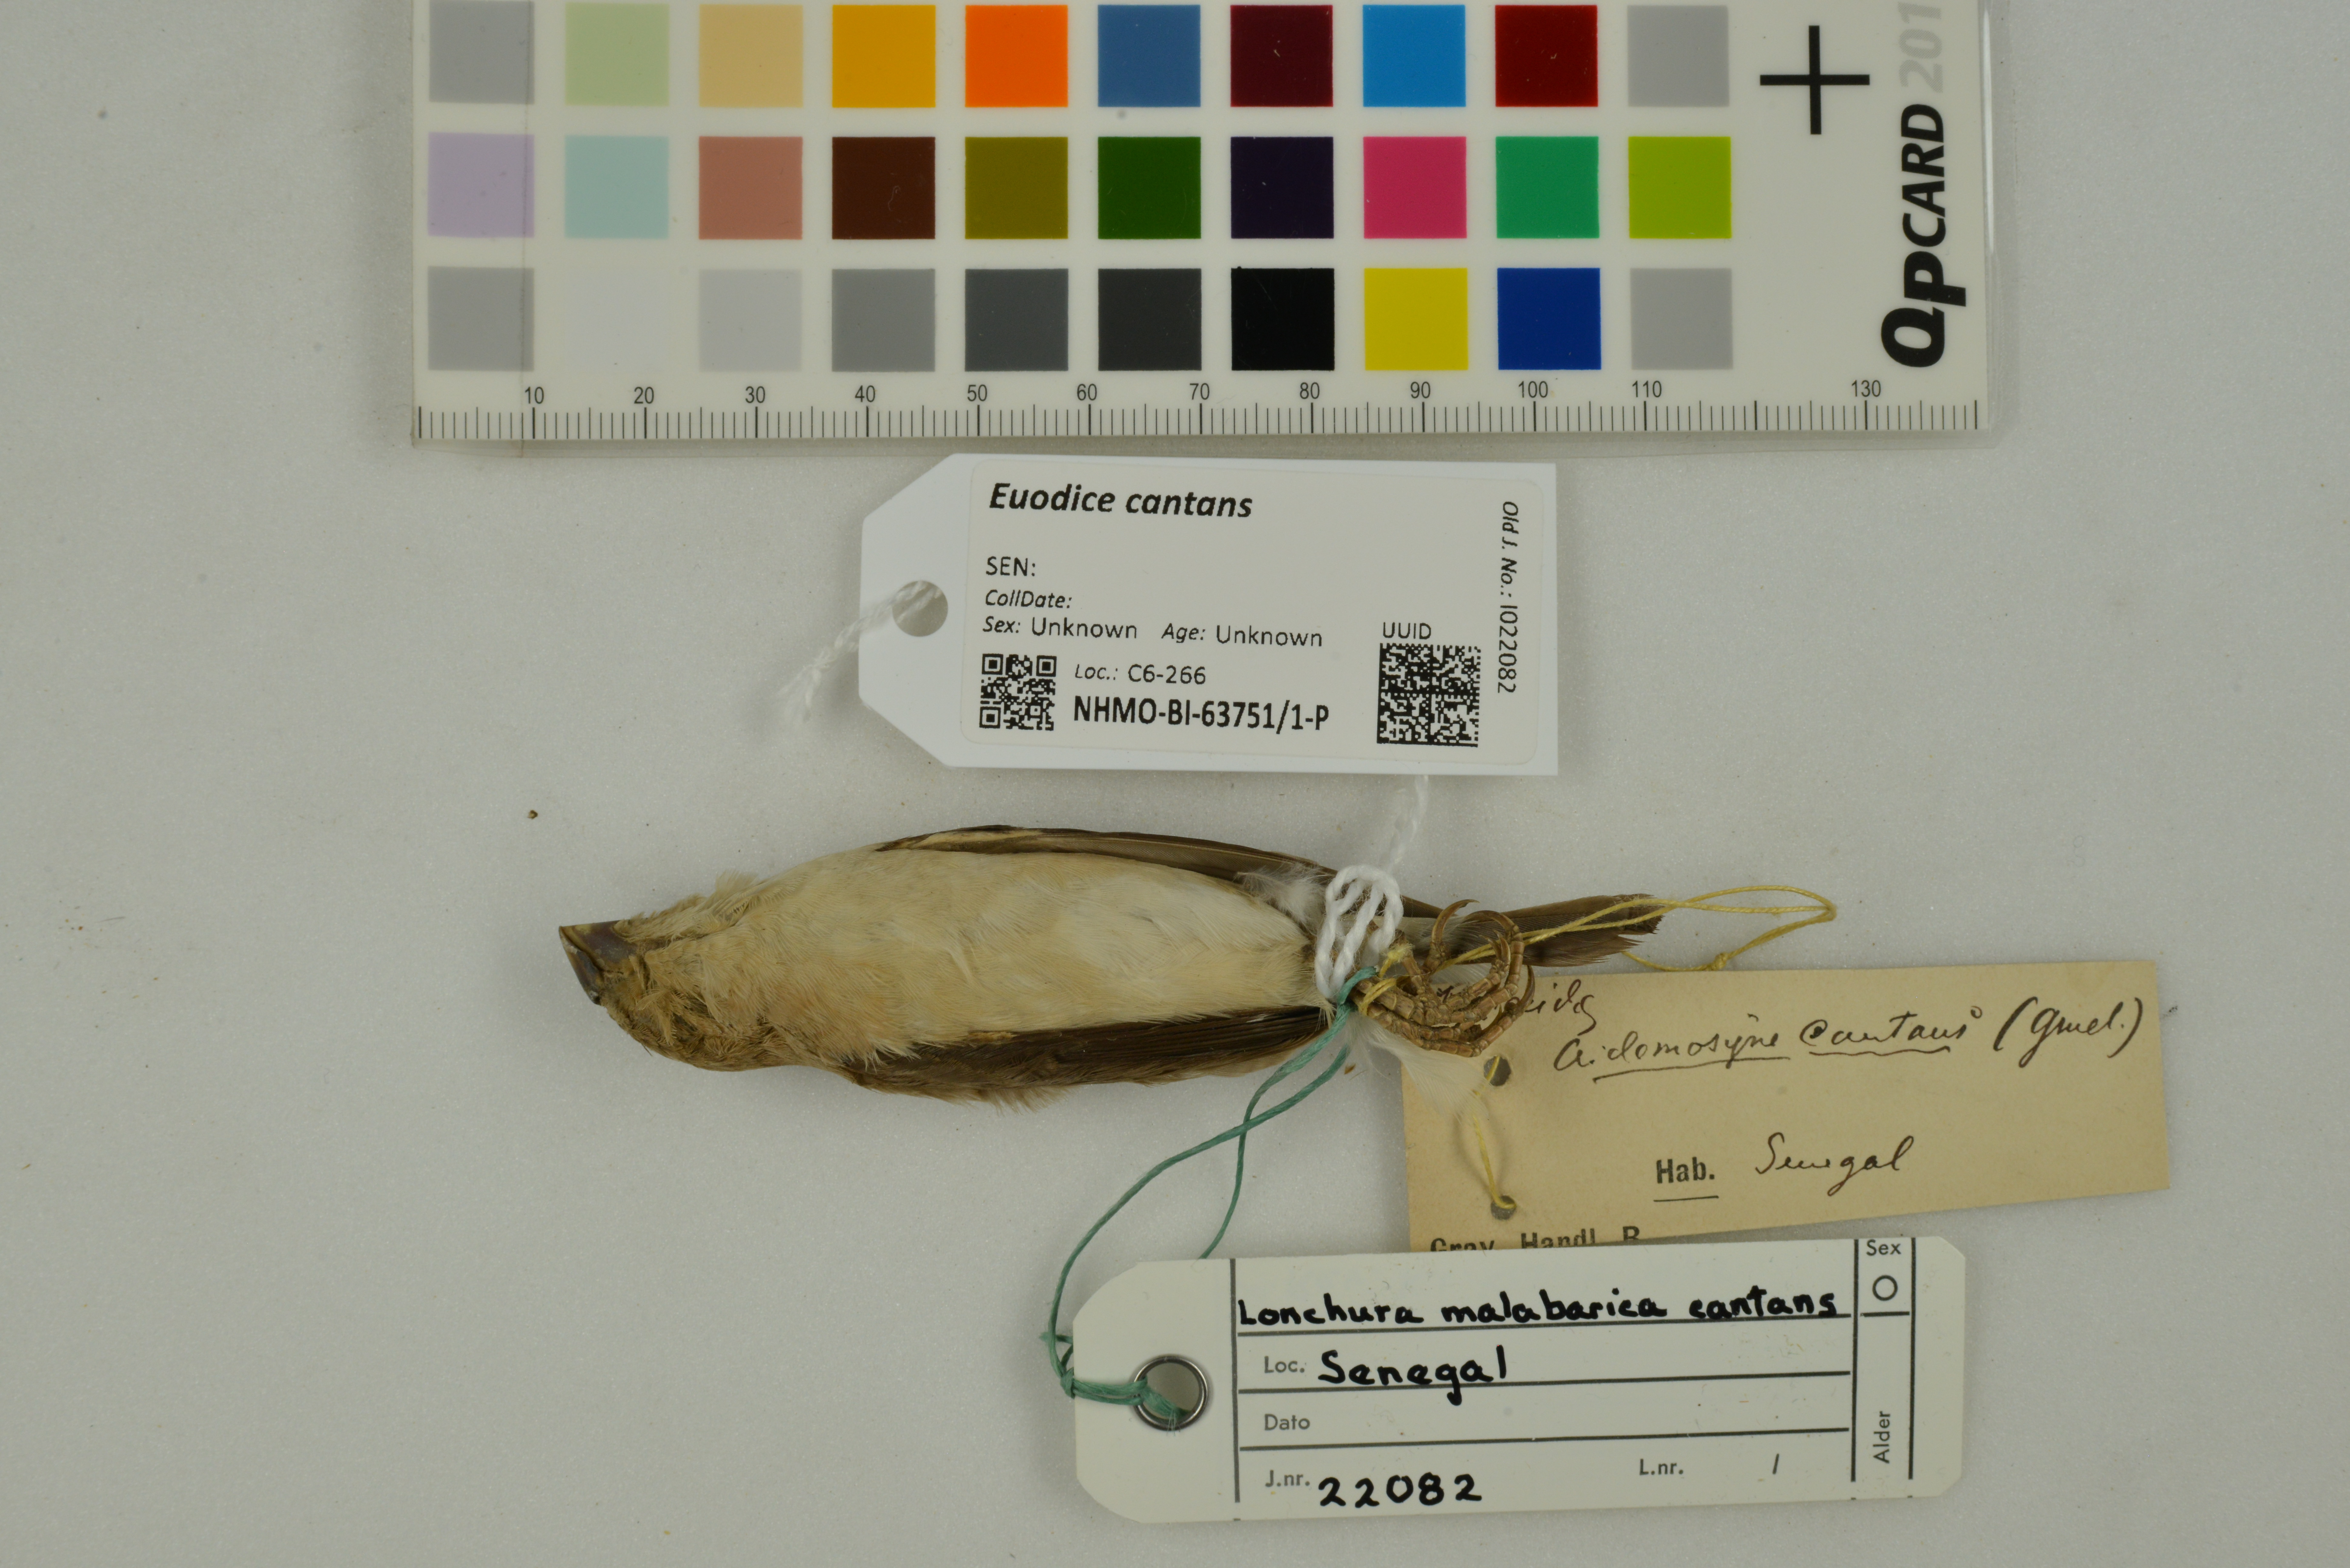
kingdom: Animalia
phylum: Chordata
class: Aves
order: Passeriformes
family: Estrildidae
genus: Euodice
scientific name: Euodice cantans
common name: African silverbill
